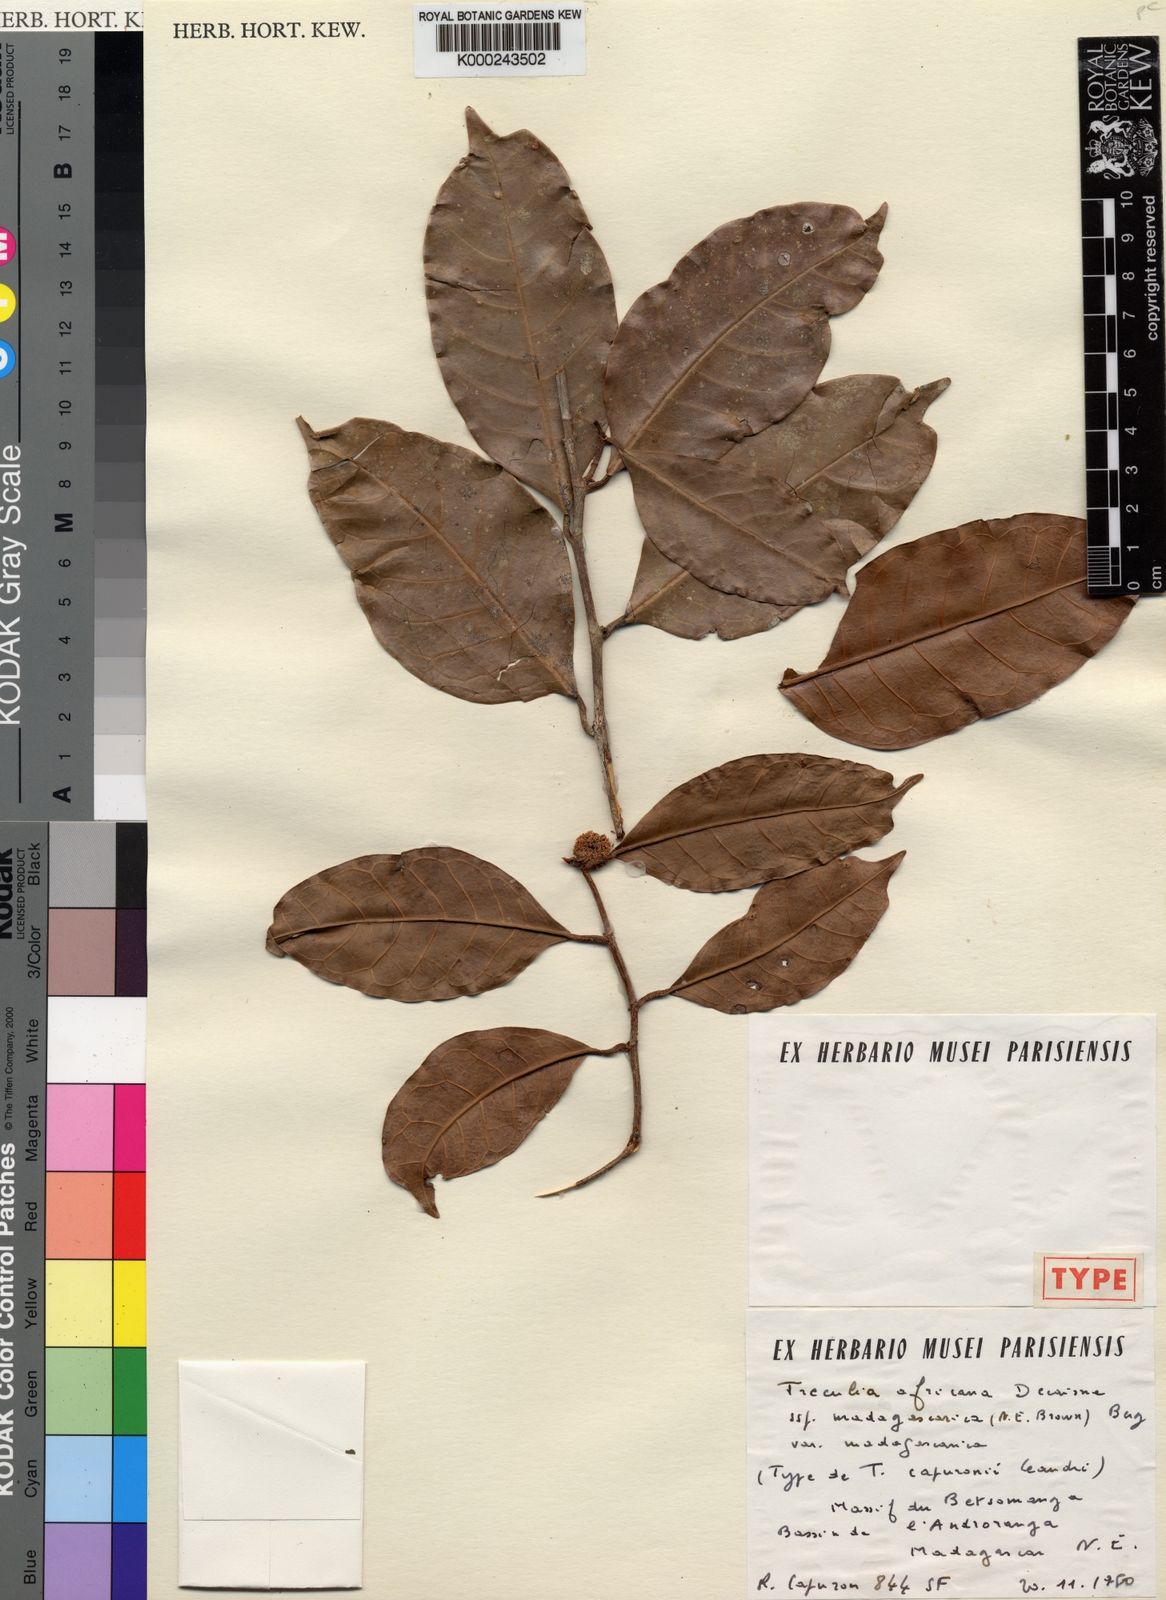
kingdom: Plantae
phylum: Tracheophyta
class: Magnoliopsida
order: Rosales
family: Moraceae
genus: Treculia
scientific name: Treculia madagascarica
